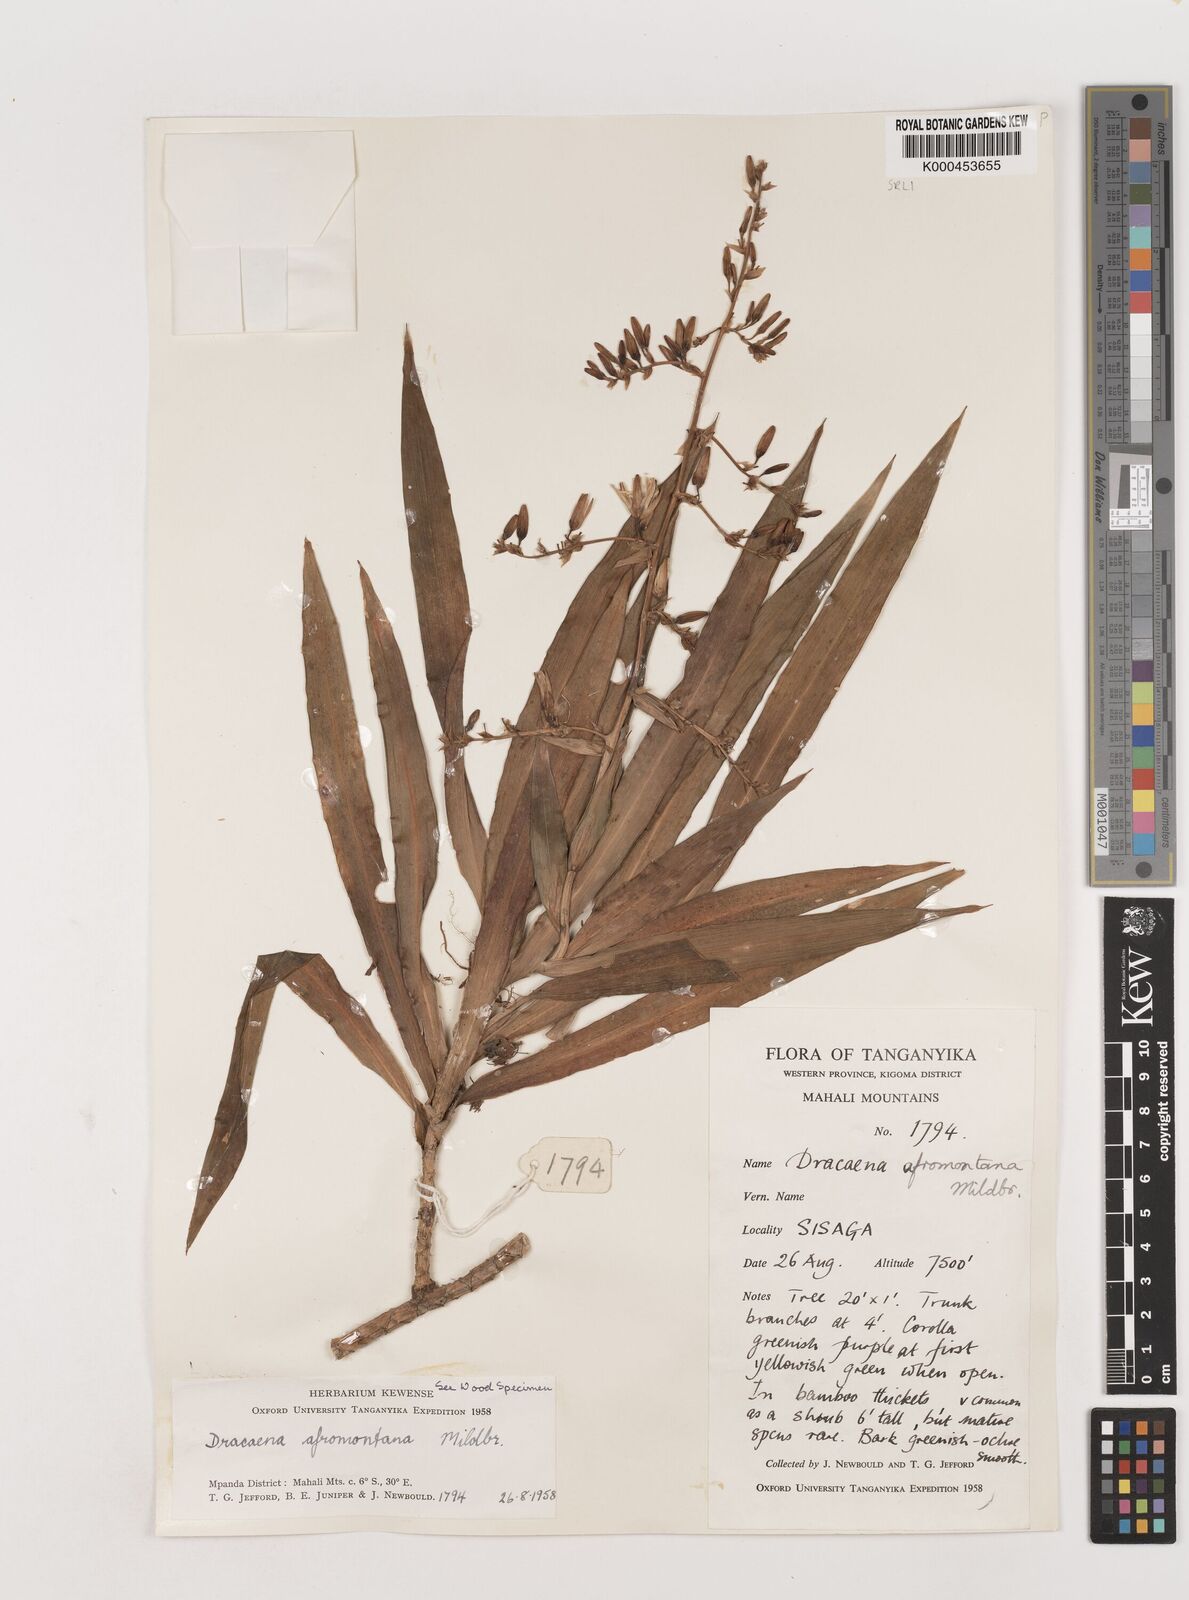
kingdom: Plantae
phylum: Tracheophyta
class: Liliopsida
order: Asparagales
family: Asparagaceae
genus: Dracaena
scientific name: Dracaena afromontana
